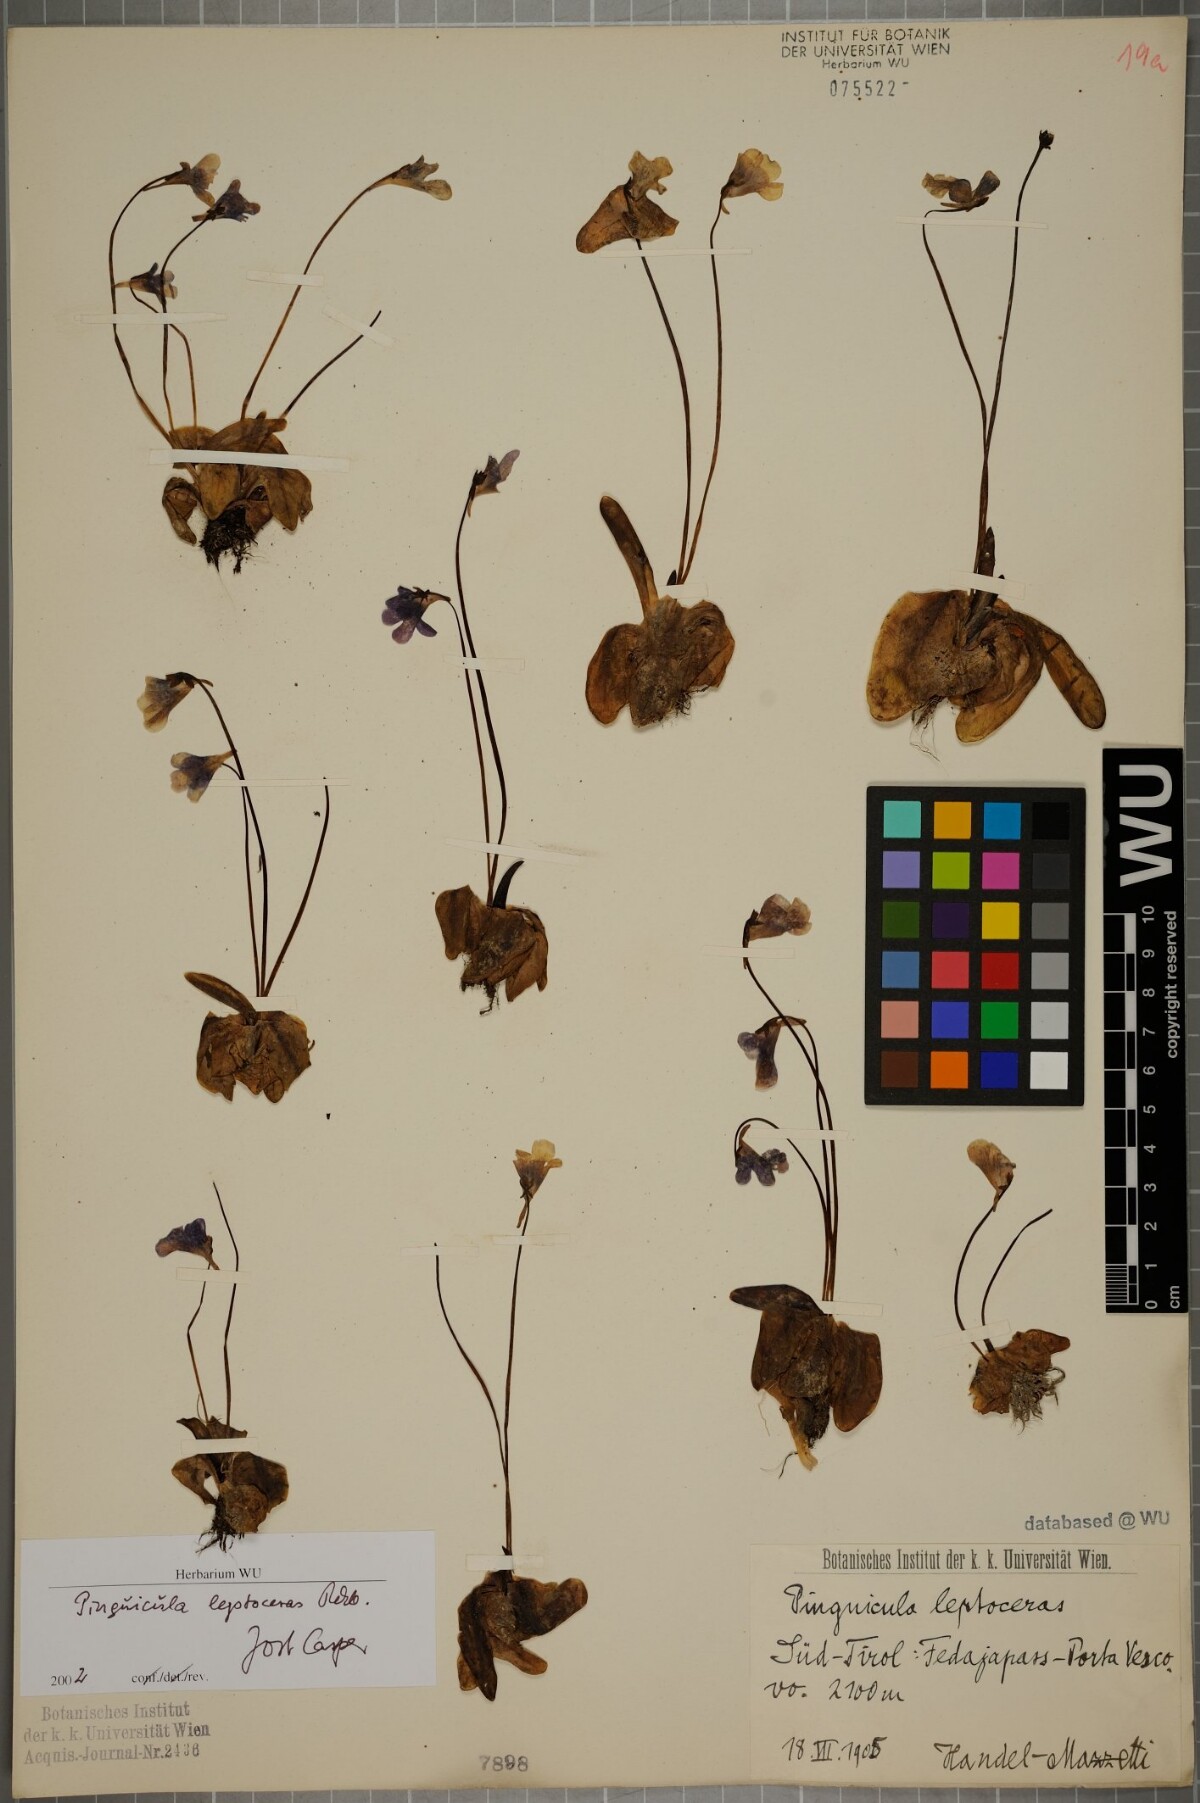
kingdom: Plantae
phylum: Tracheophyta
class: Magnoliopsida
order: Lamiales
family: Lentibulariaceae
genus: Pinguicula
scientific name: Pinguicula leptoceras
